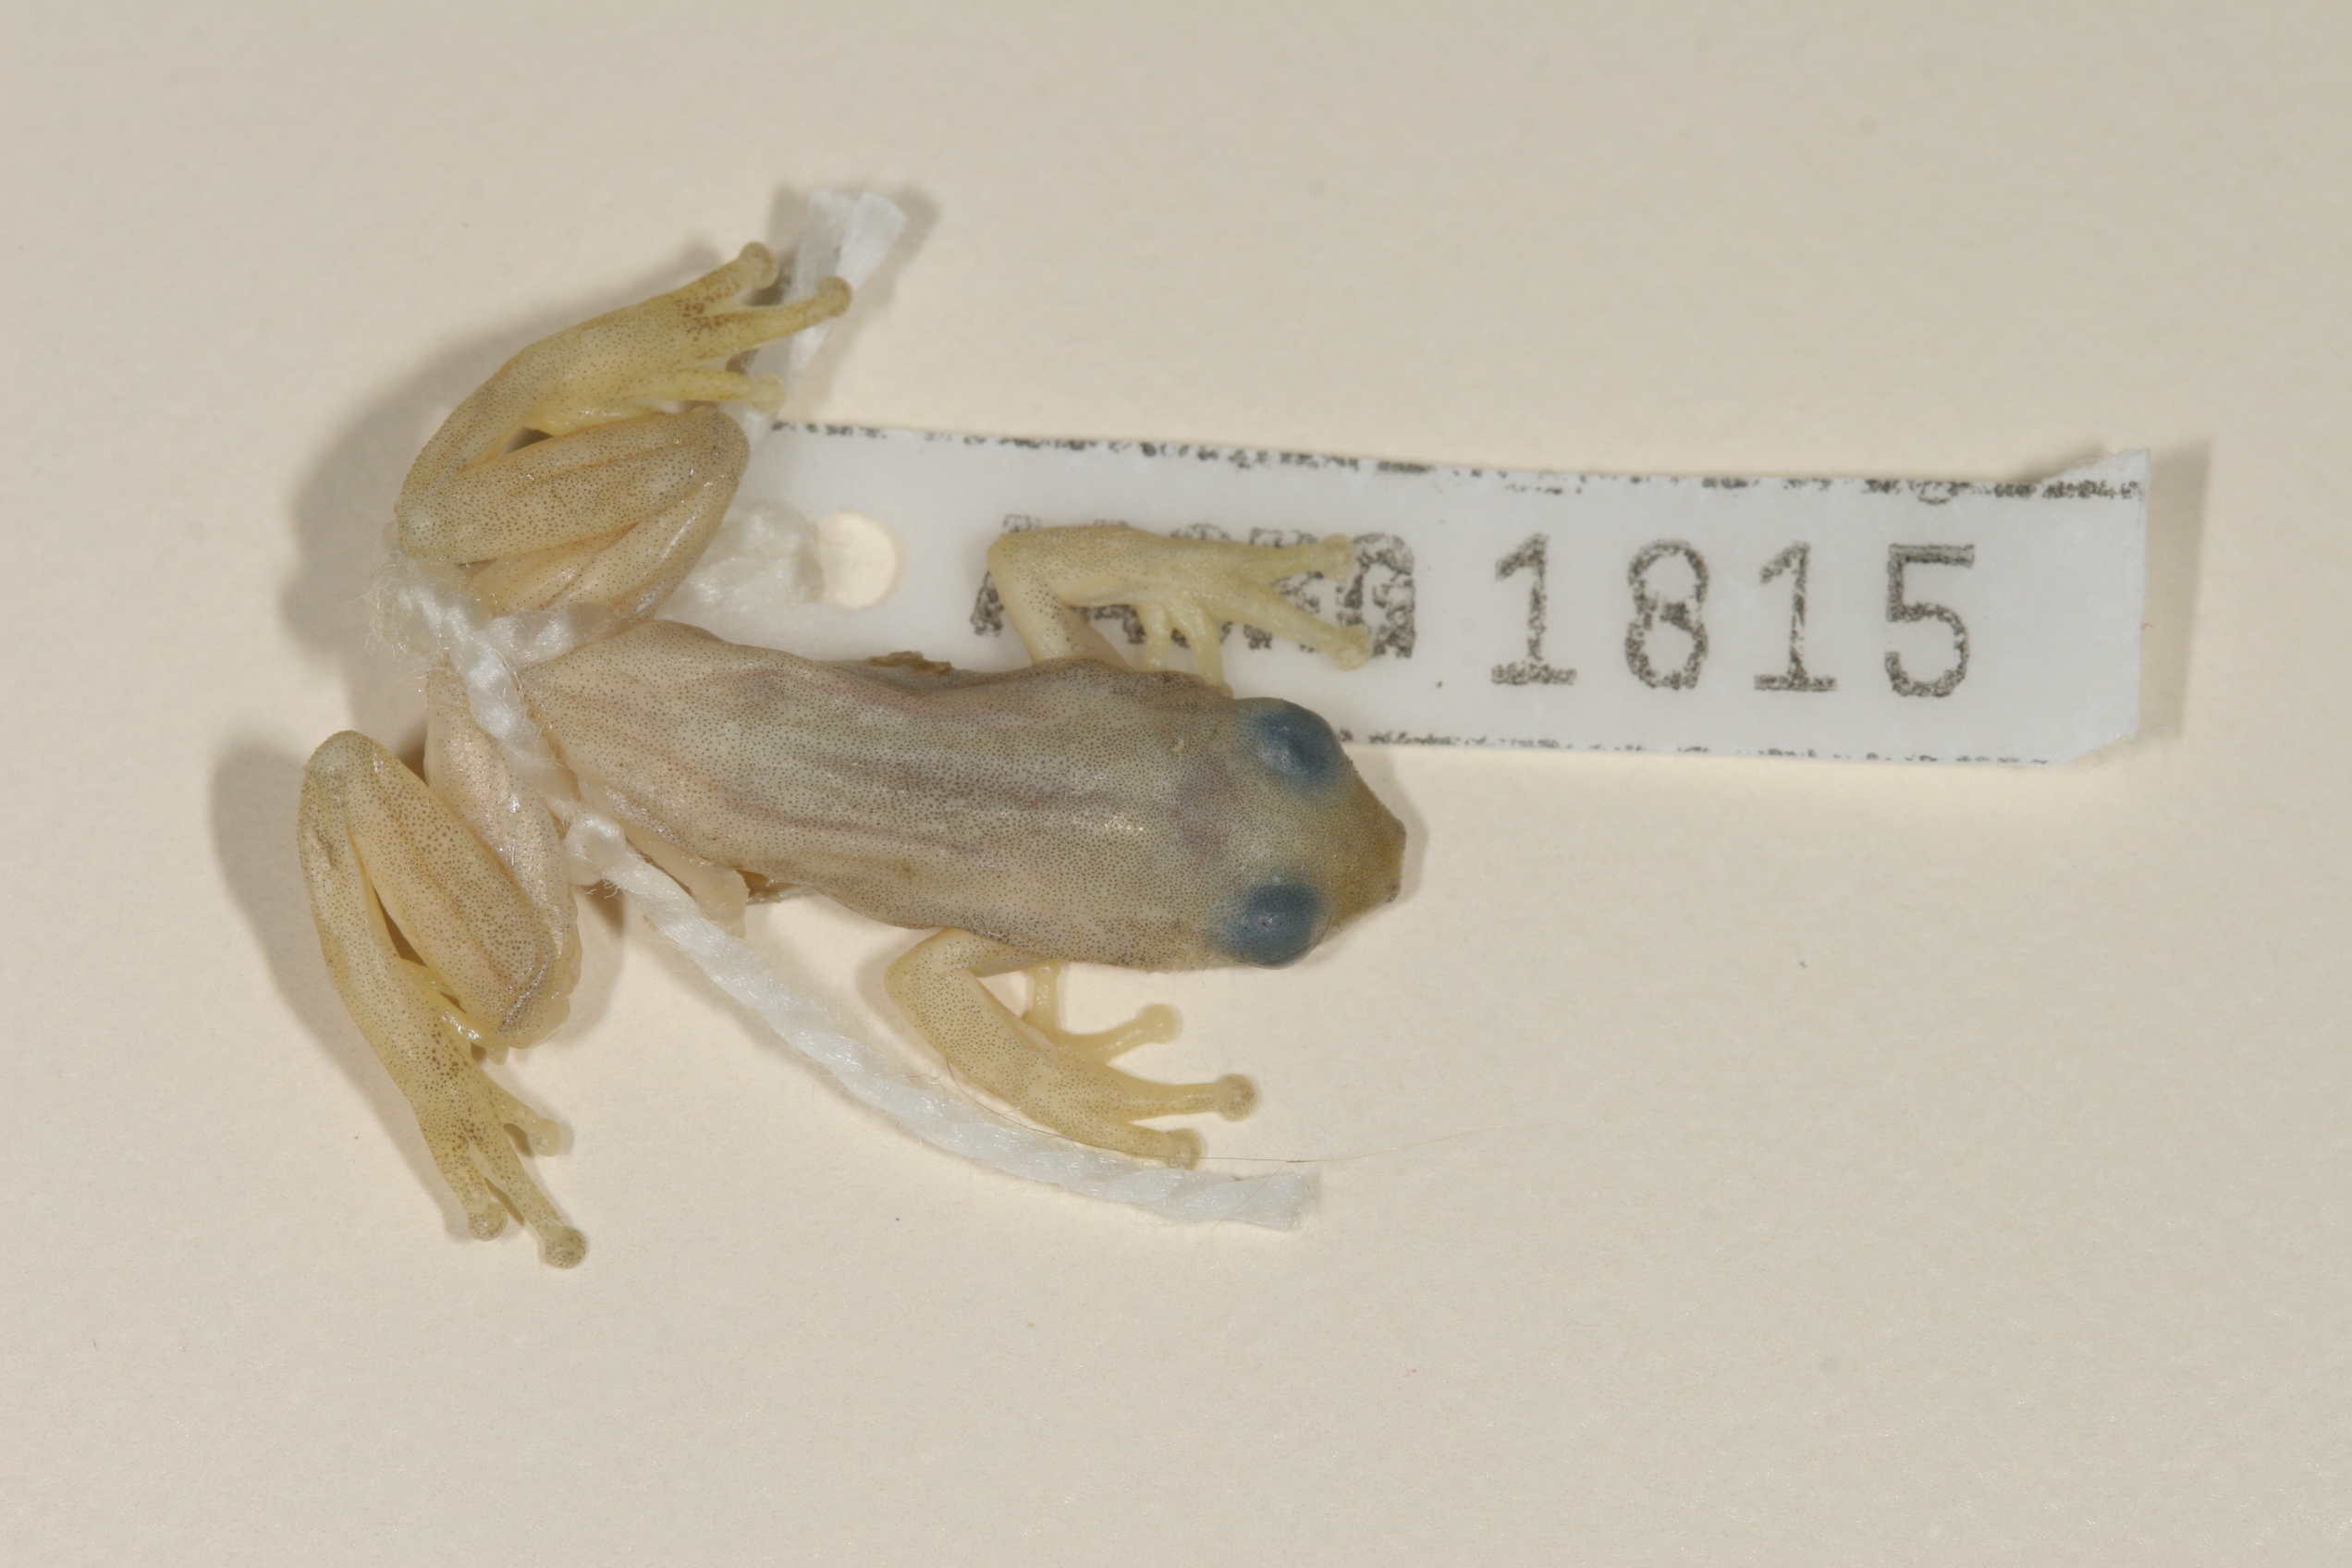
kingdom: Animalia
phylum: Chordata
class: Amphibia
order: Anura
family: Hyperoliidae
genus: Afrixalus
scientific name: Afrixalus delicatus
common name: Delicate leaf-folding frog
